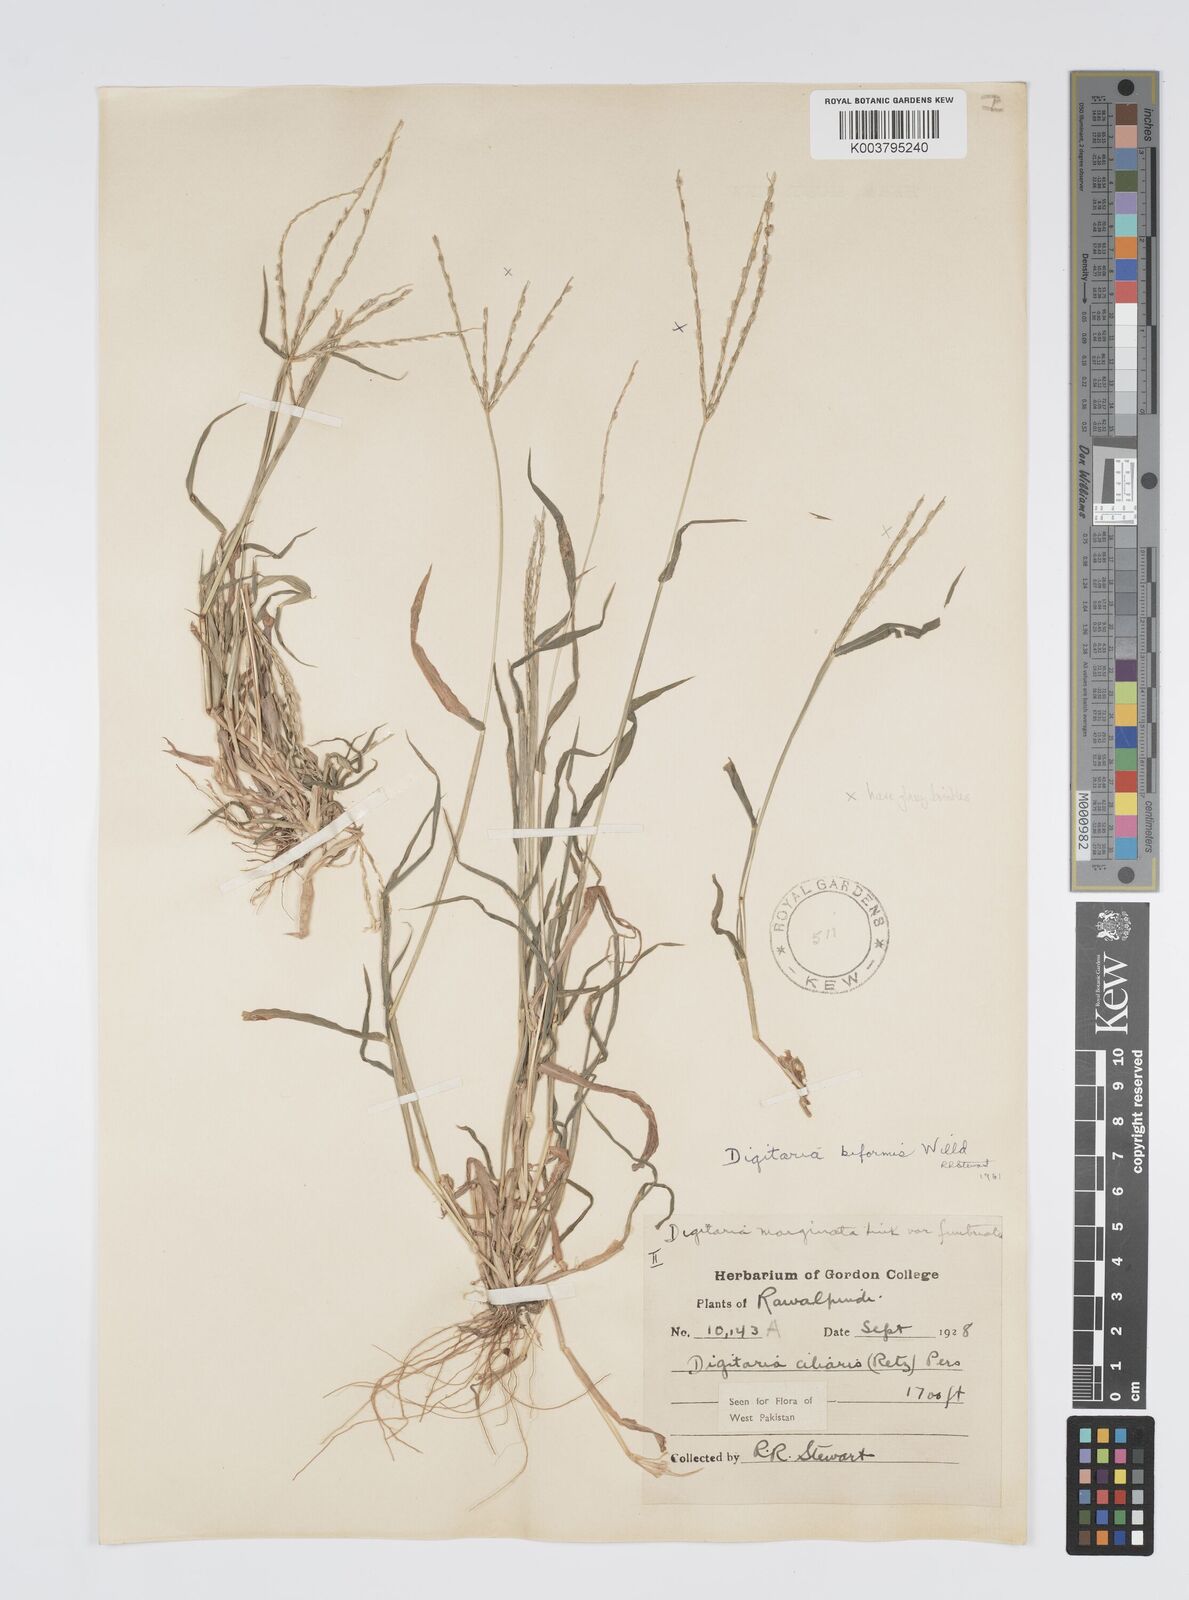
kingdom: Plantae
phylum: Tracheophyta
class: Liliopsida
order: Poales
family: Poaceae
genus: Digitaria
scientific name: Digitaria ciliaris
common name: Tropical finger-grass
